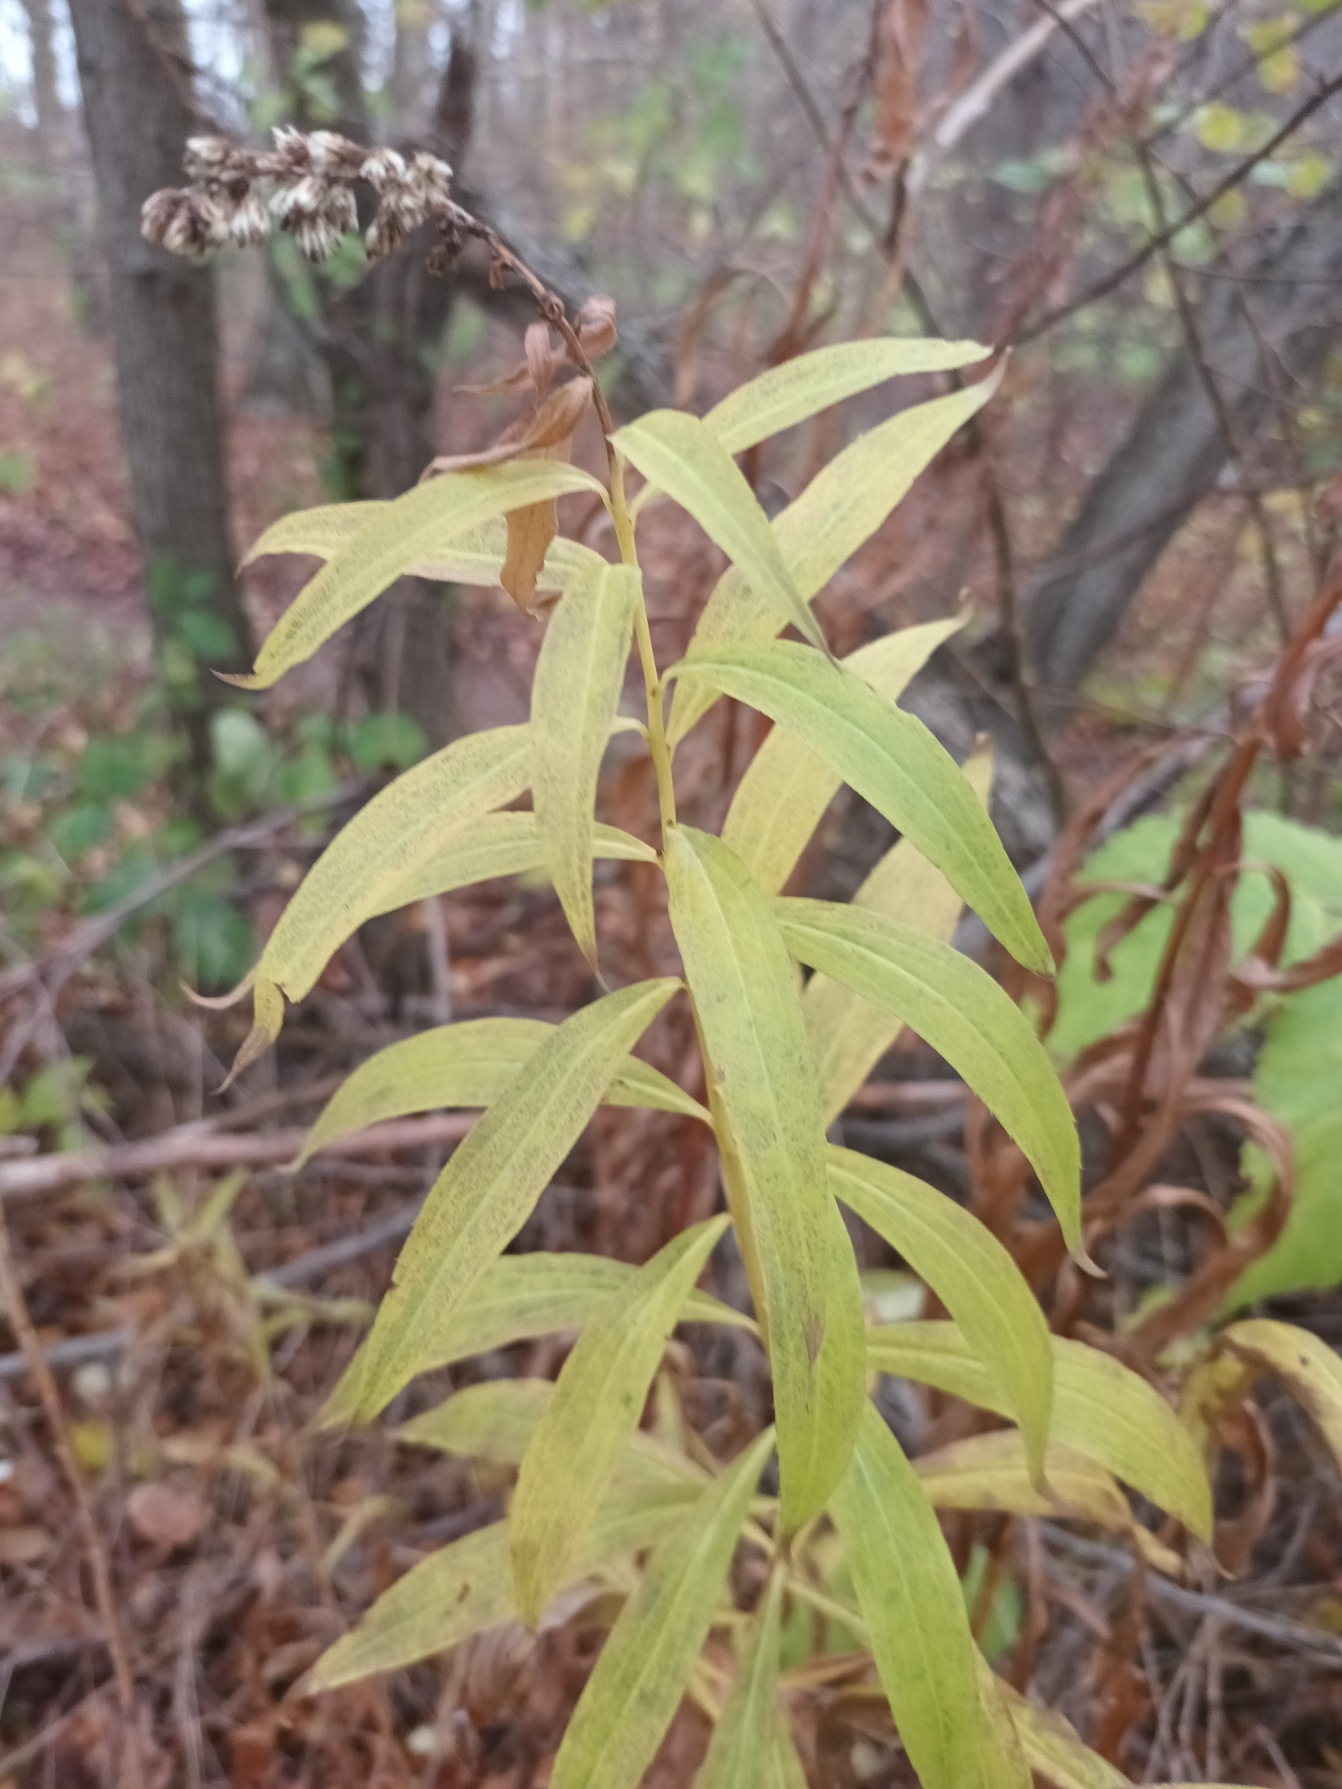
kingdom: Plantae
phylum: Tracheophyta
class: Magnoliopsida
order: Asterales
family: Asteraceae
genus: Solidago
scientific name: Solidago gigantea
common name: Sildig gyldenris
